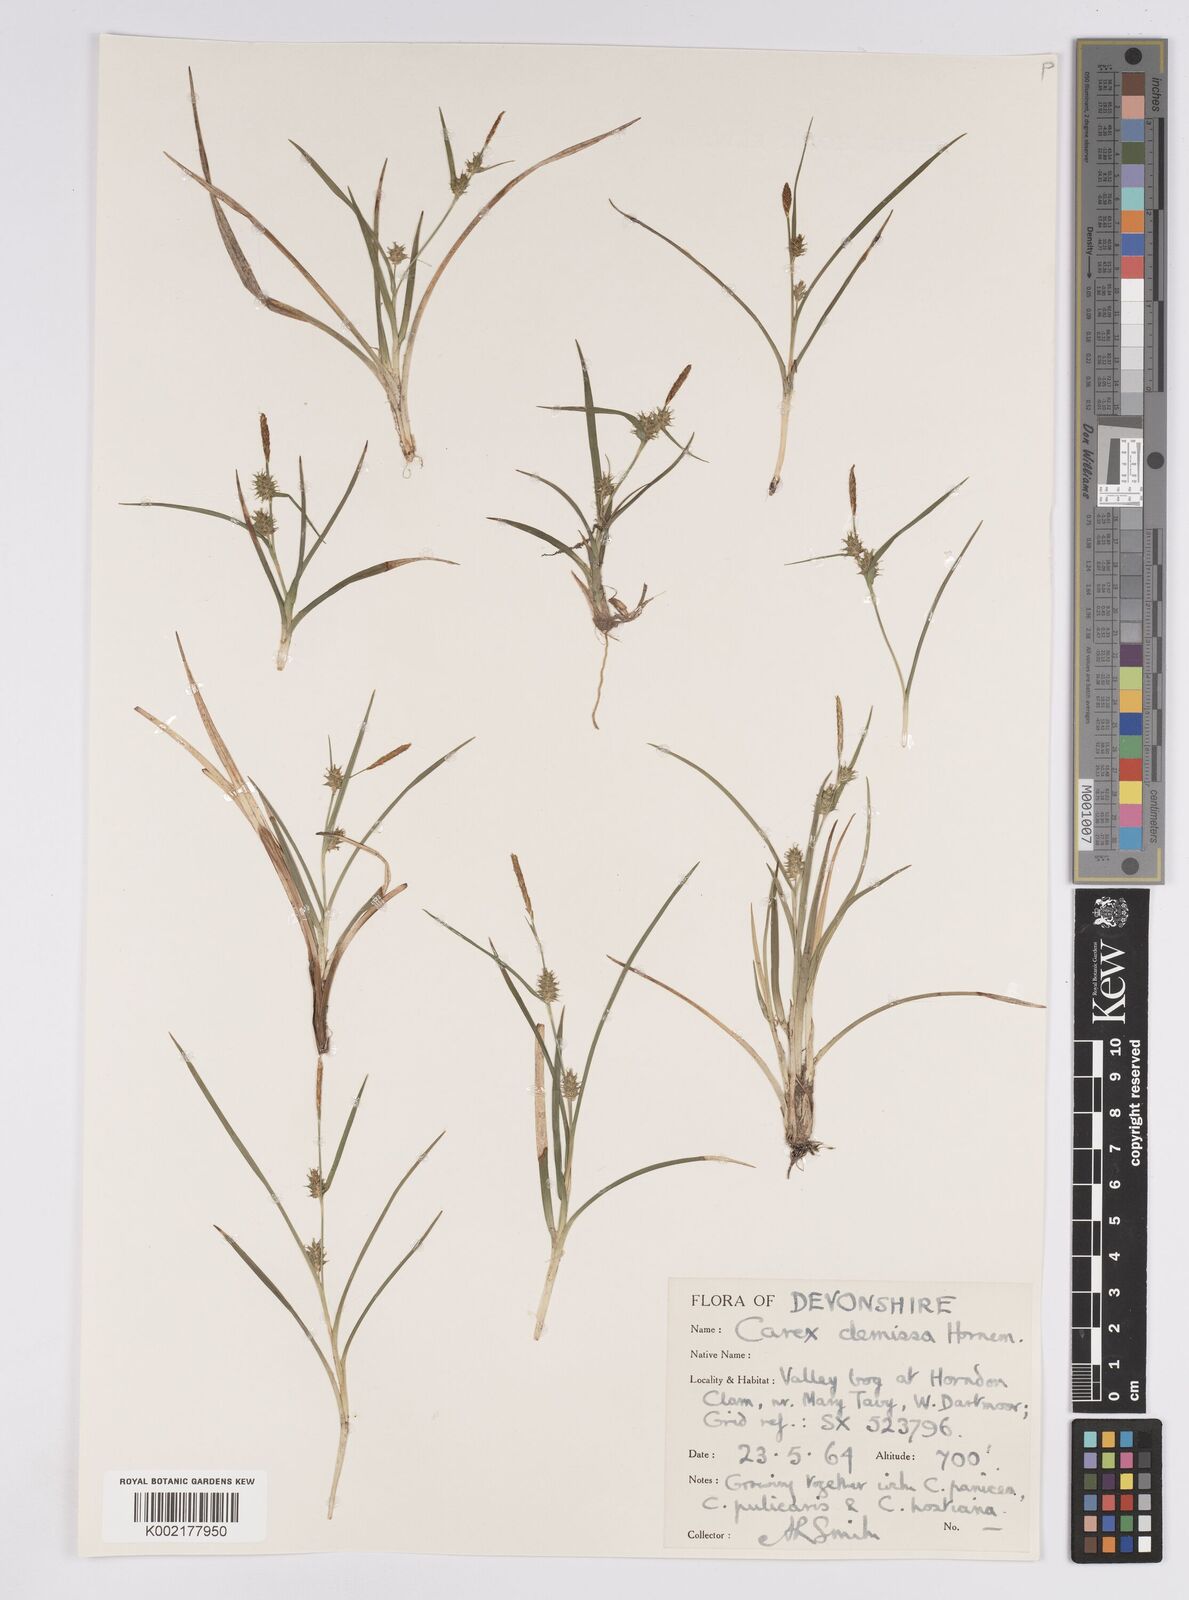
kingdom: Plantae
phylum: Tracheophyta
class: Liliopsida
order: Poales
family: Cyperaceae
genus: Carex
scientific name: Carex demissa
